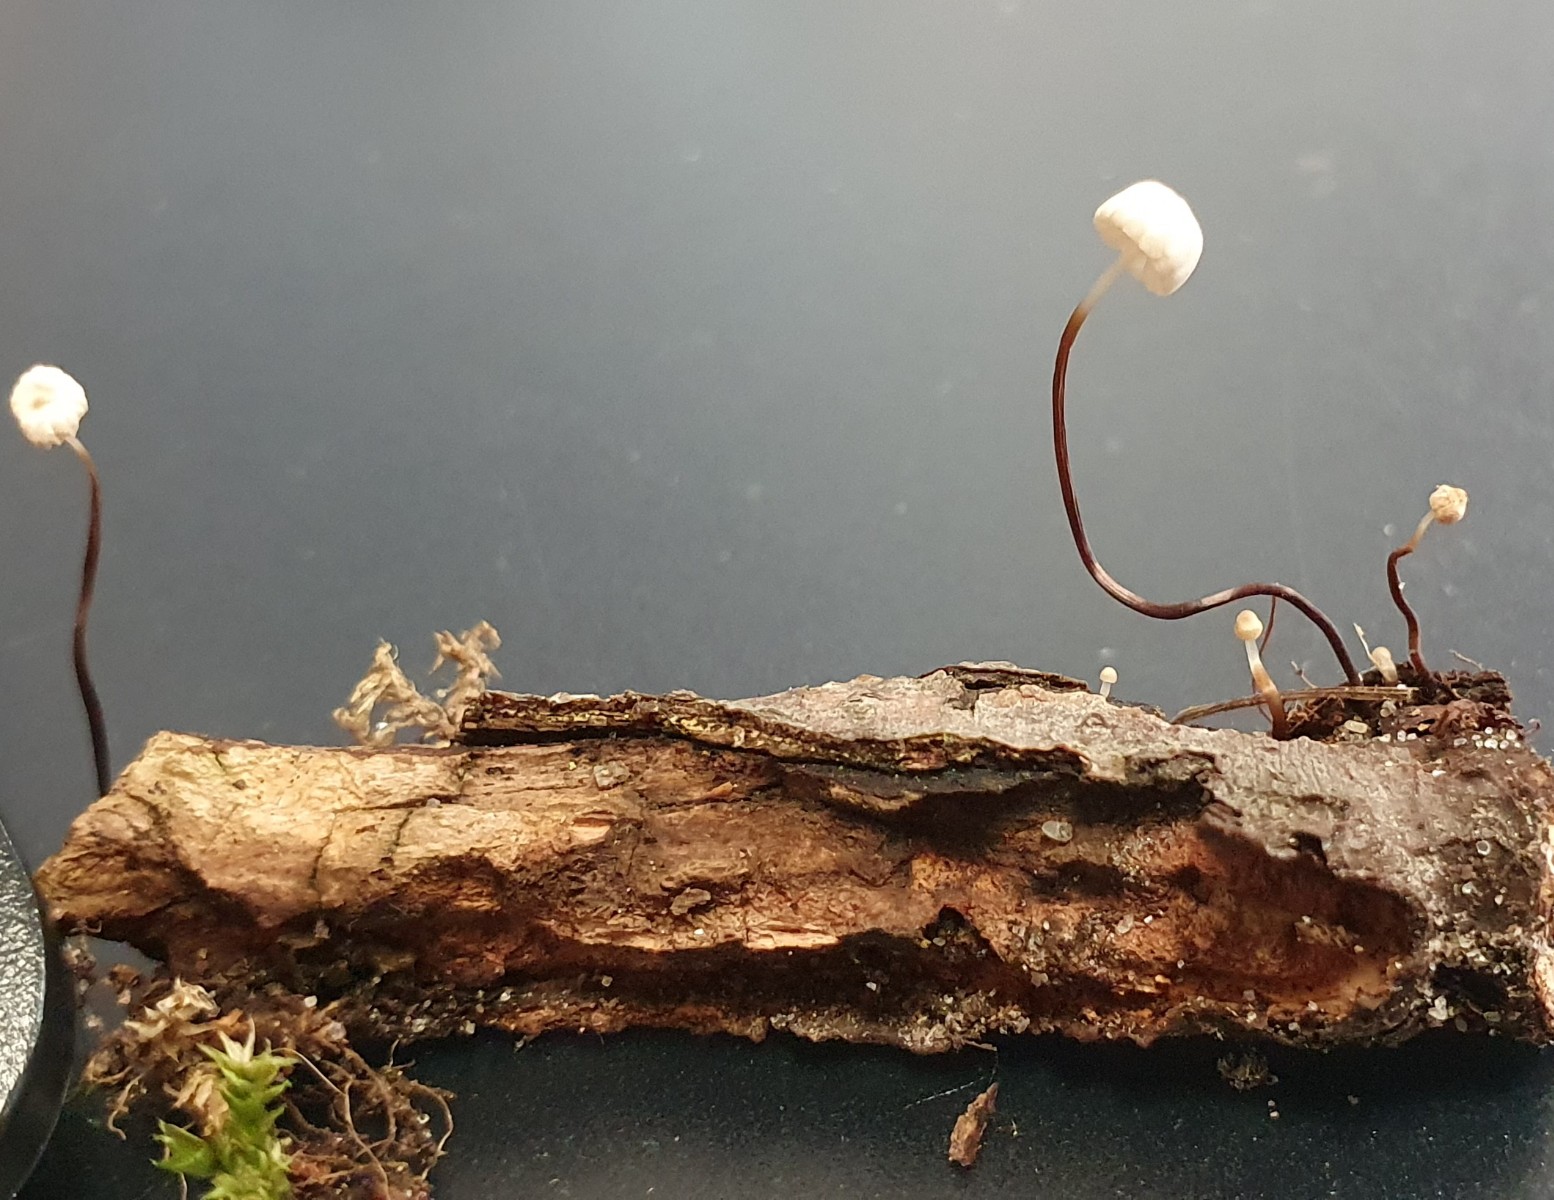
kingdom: Fungi
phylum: Basidiomycota
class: Agaricomycetes
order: Agaricales
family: Marasmiaceae
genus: Marasmius
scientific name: Marasmius rotula
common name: hjul-bruskhat
